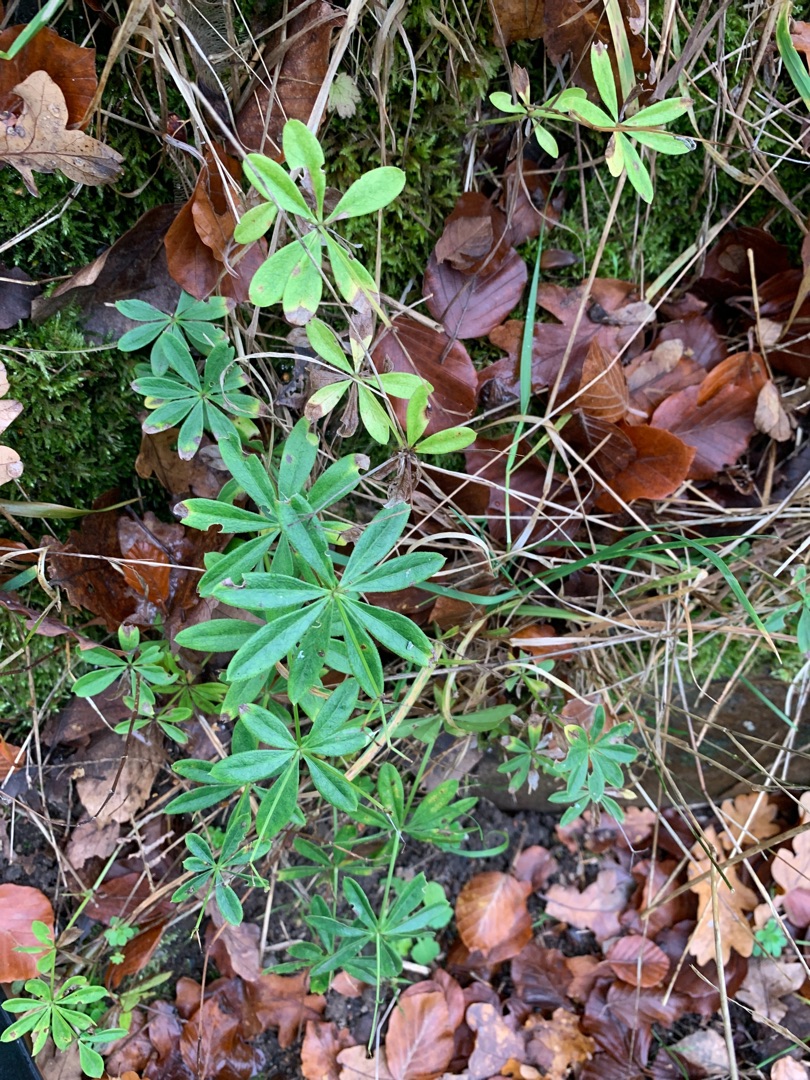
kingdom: Plantae
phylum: Tracheophyta
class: Magnoliopsida
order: Gentianales
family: Rubiaceae
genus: Galium
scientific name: Galium odoratum
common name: Skovmærke
